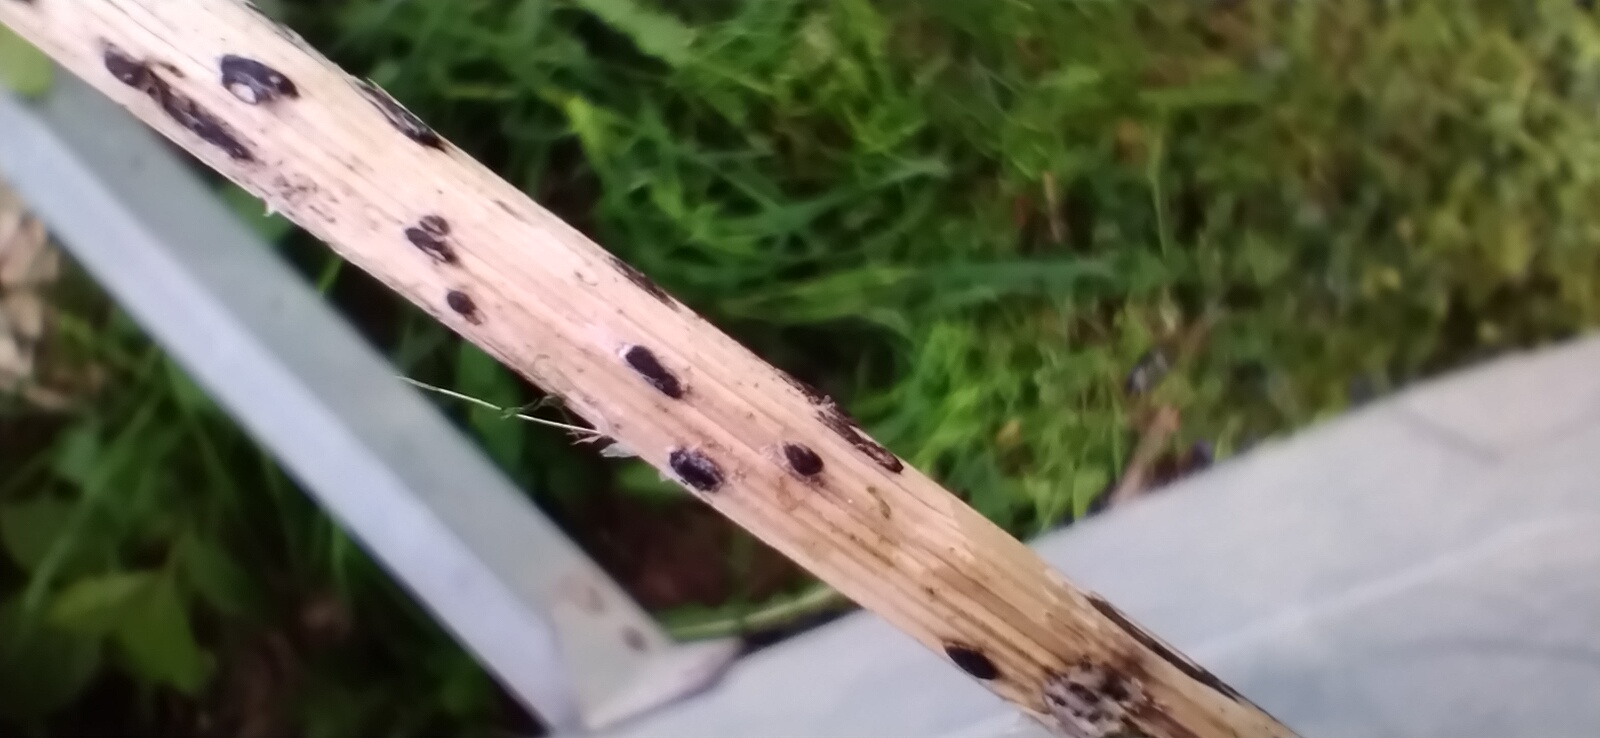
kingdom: Fungi
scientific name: Fungi
